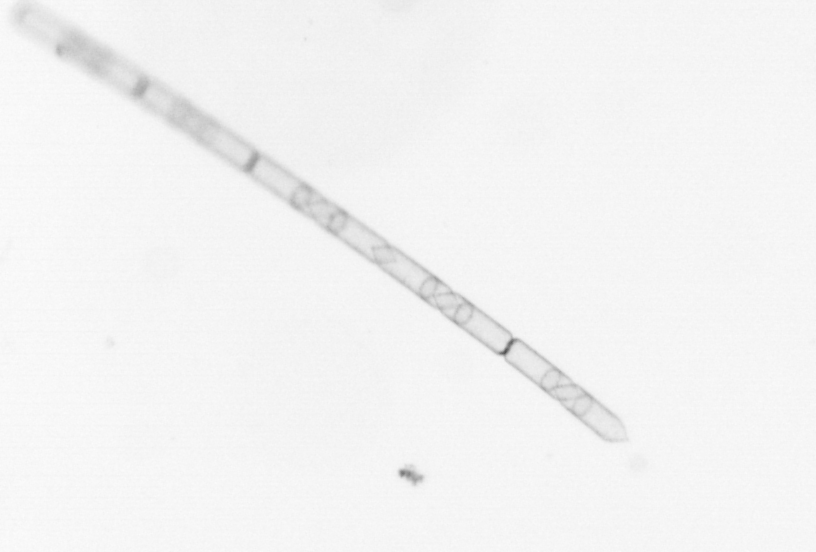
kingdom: Chromista
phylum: Ochrophyta
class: Bacillariophyceae
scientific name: Bacillariophyceae
